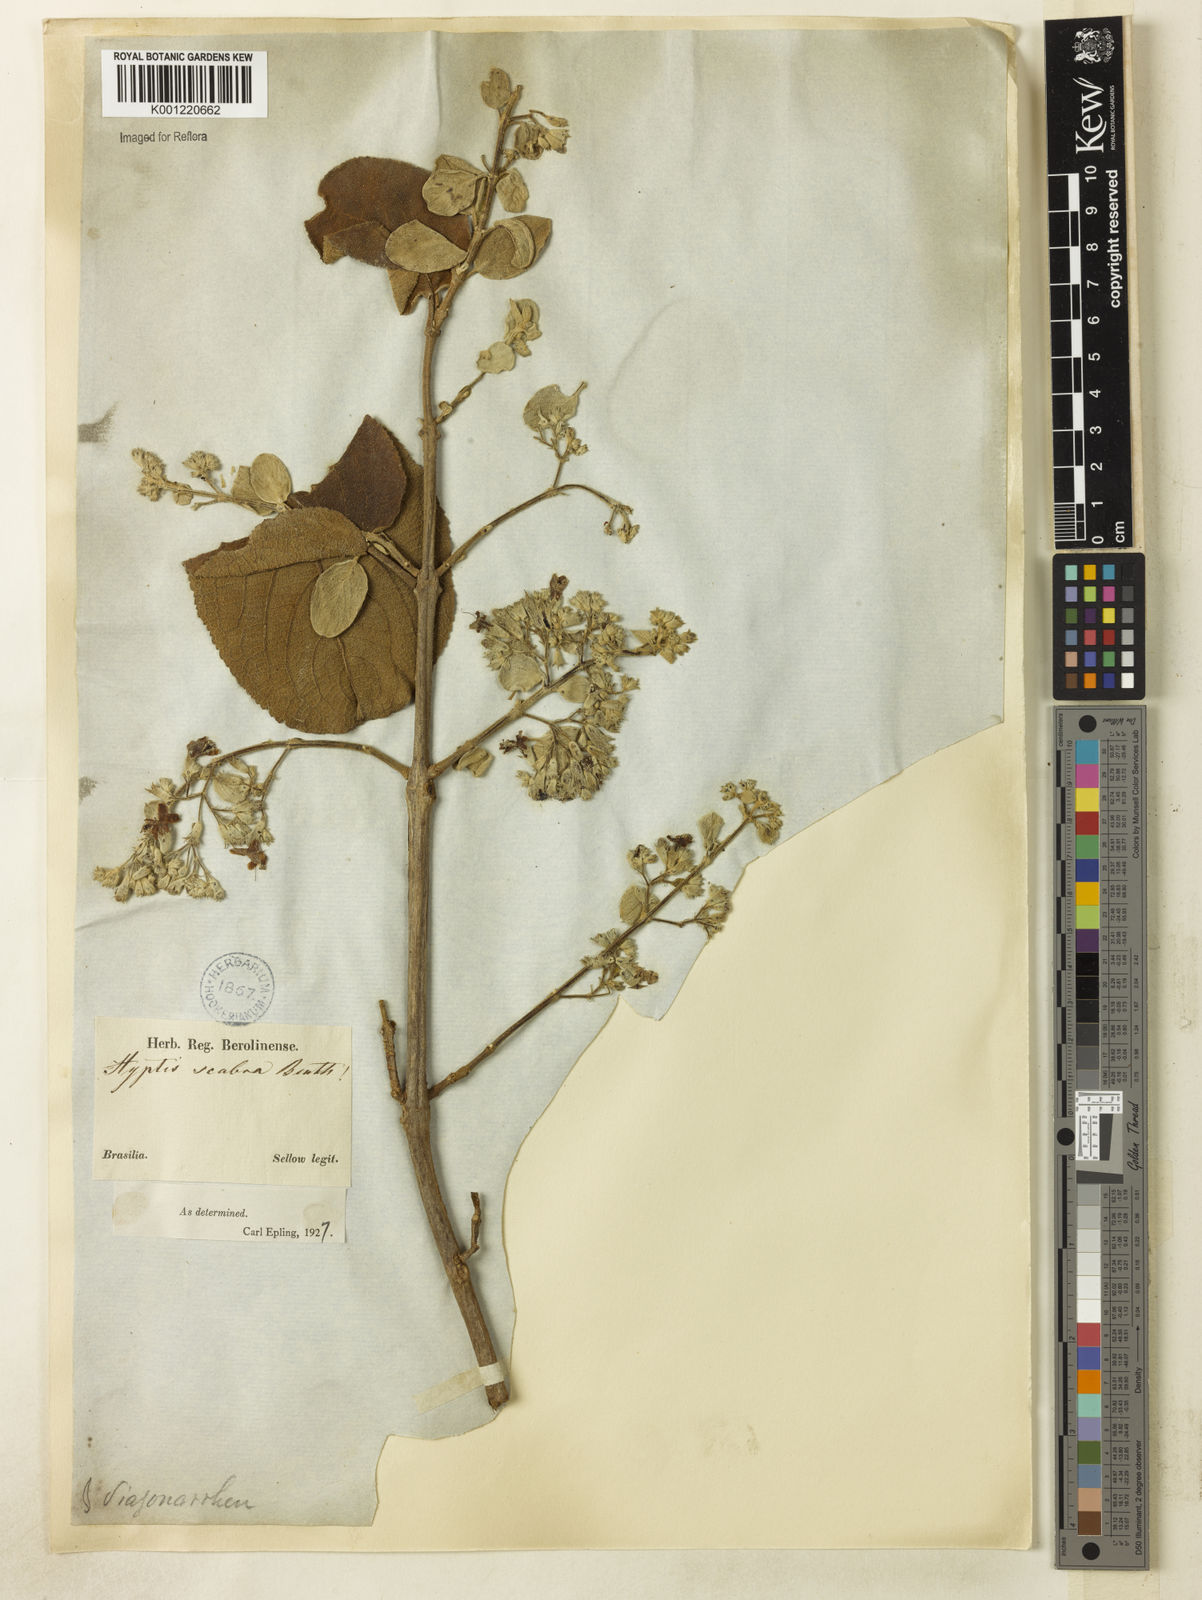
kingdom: Plantae
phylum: Tracheophyta
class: Magnoliopsida
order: Lamiales
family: Lamiaceae
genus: Hyptidendron
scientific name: Hyptidendron canum
